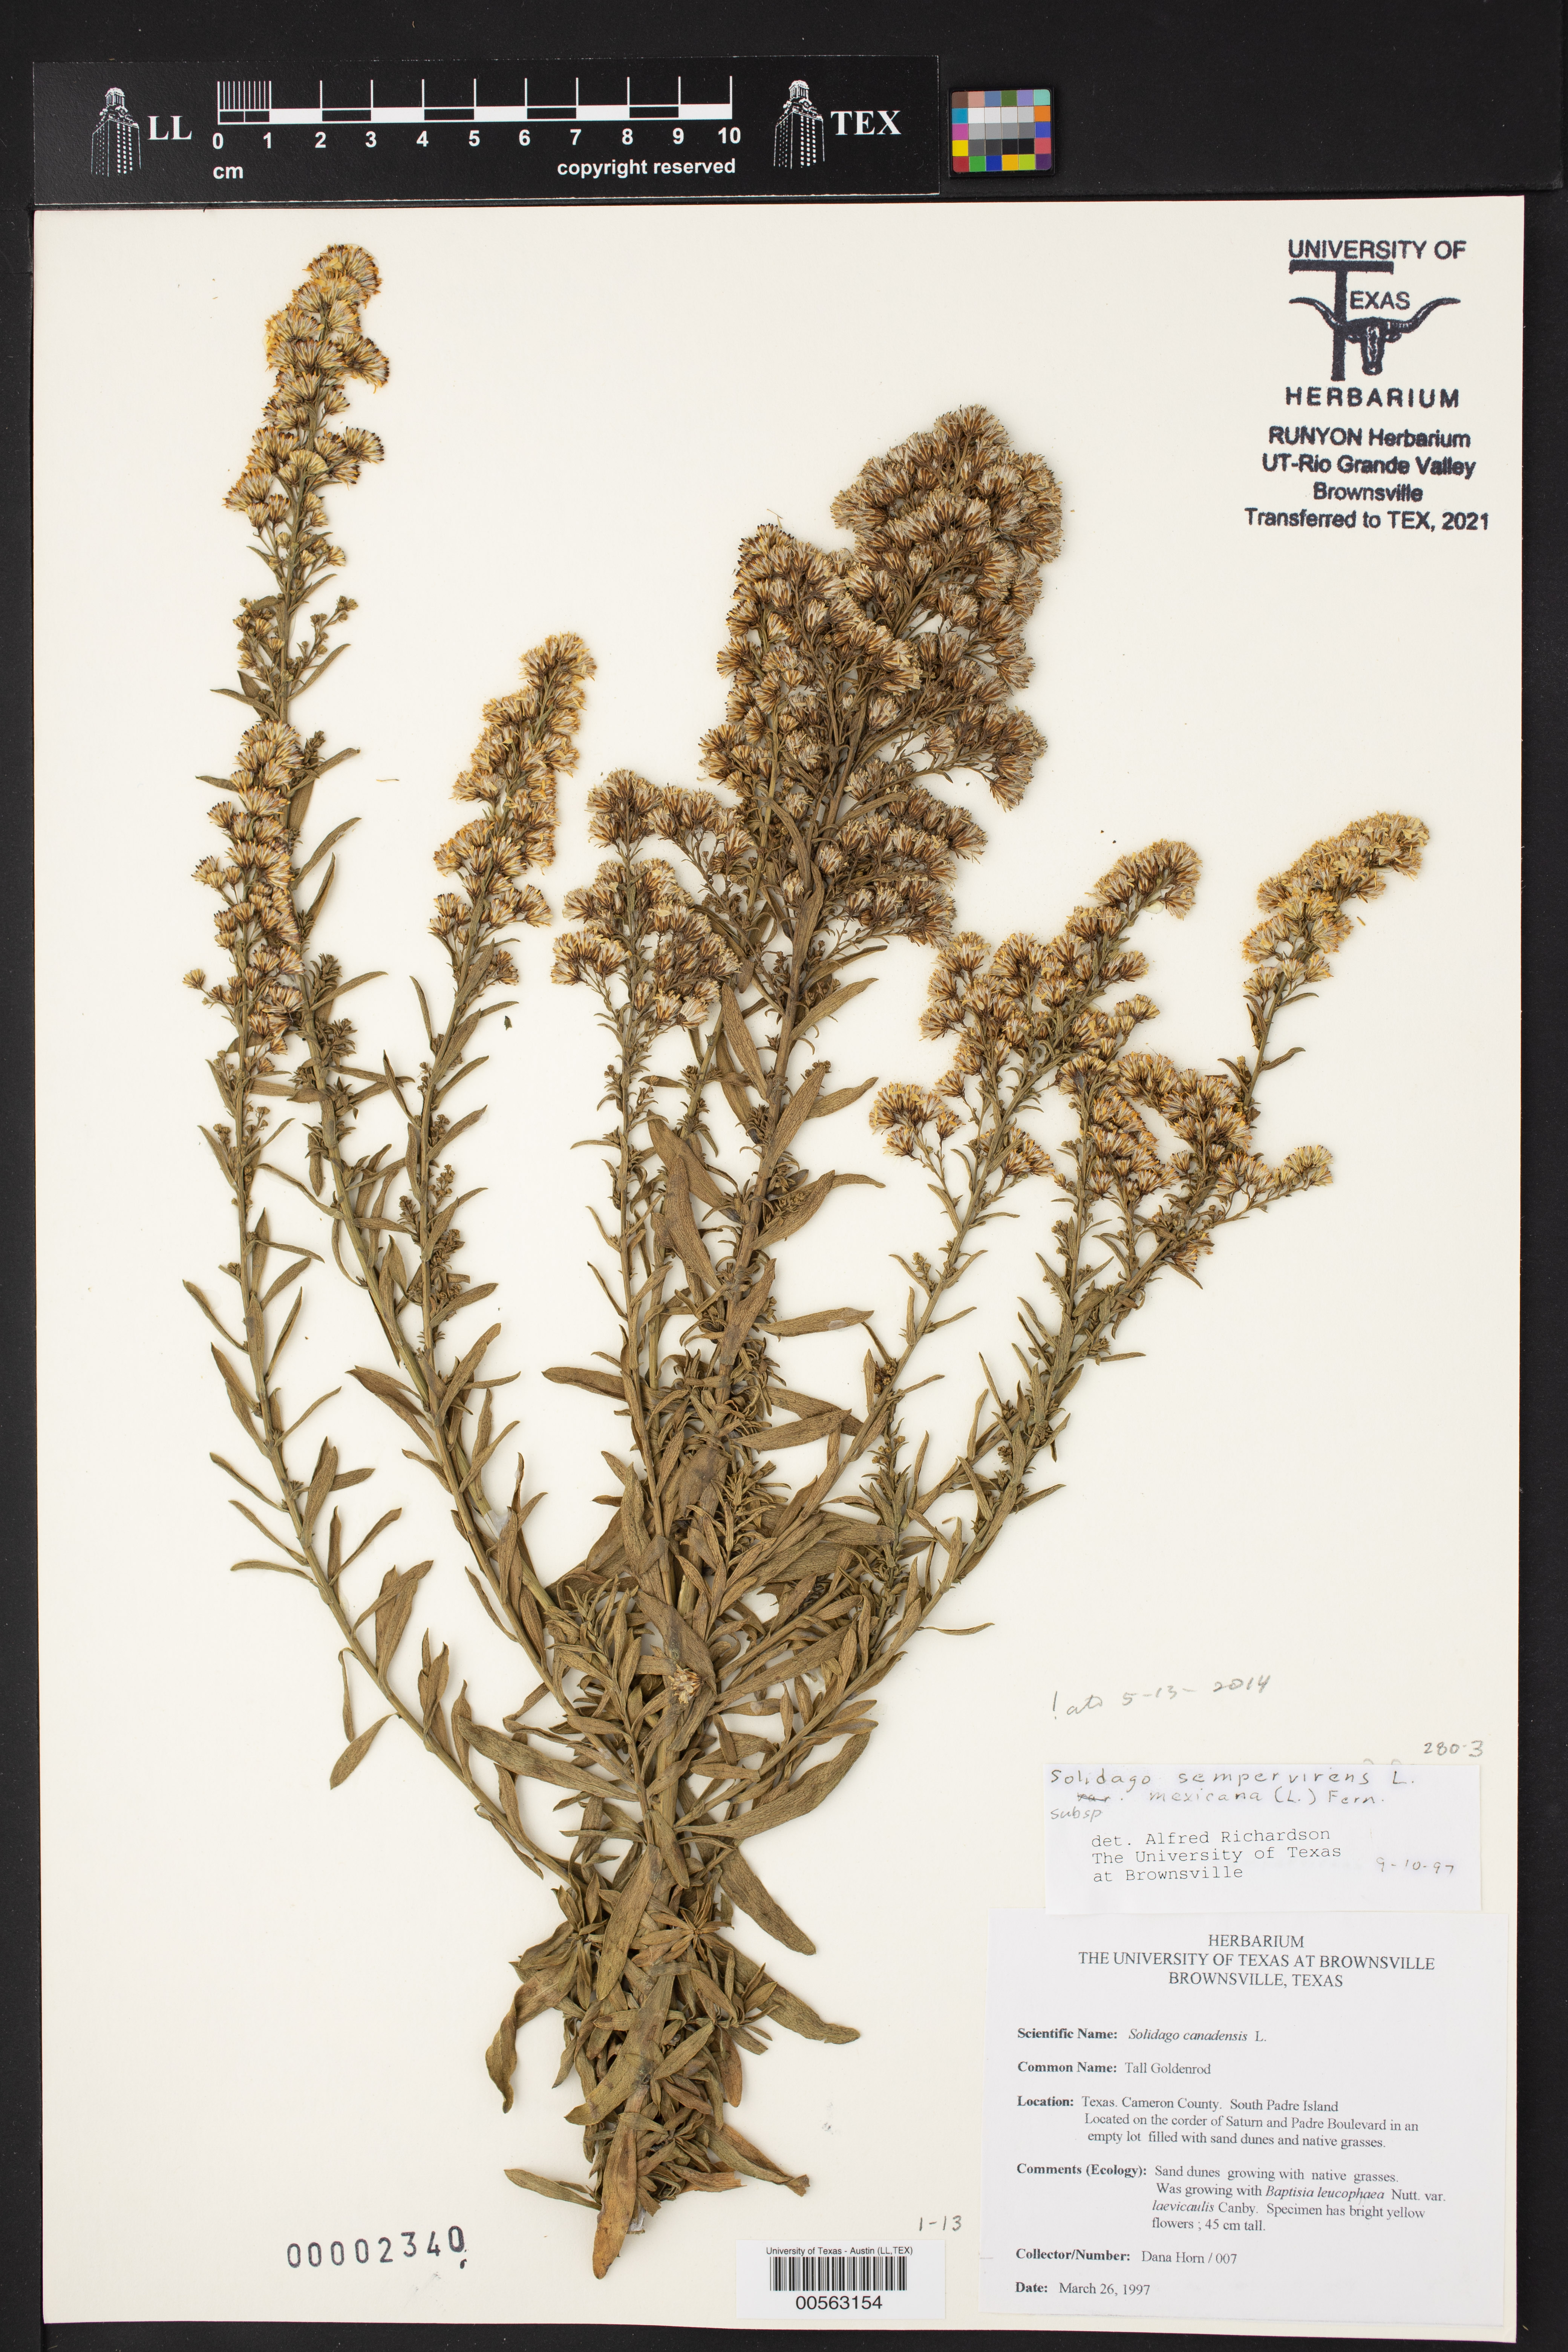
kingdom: Plantae
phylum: Tracheophyta
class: Magnoliopsida
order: Asterales
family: Asteraceae
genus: Solidago
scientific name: Solidago mexicana
